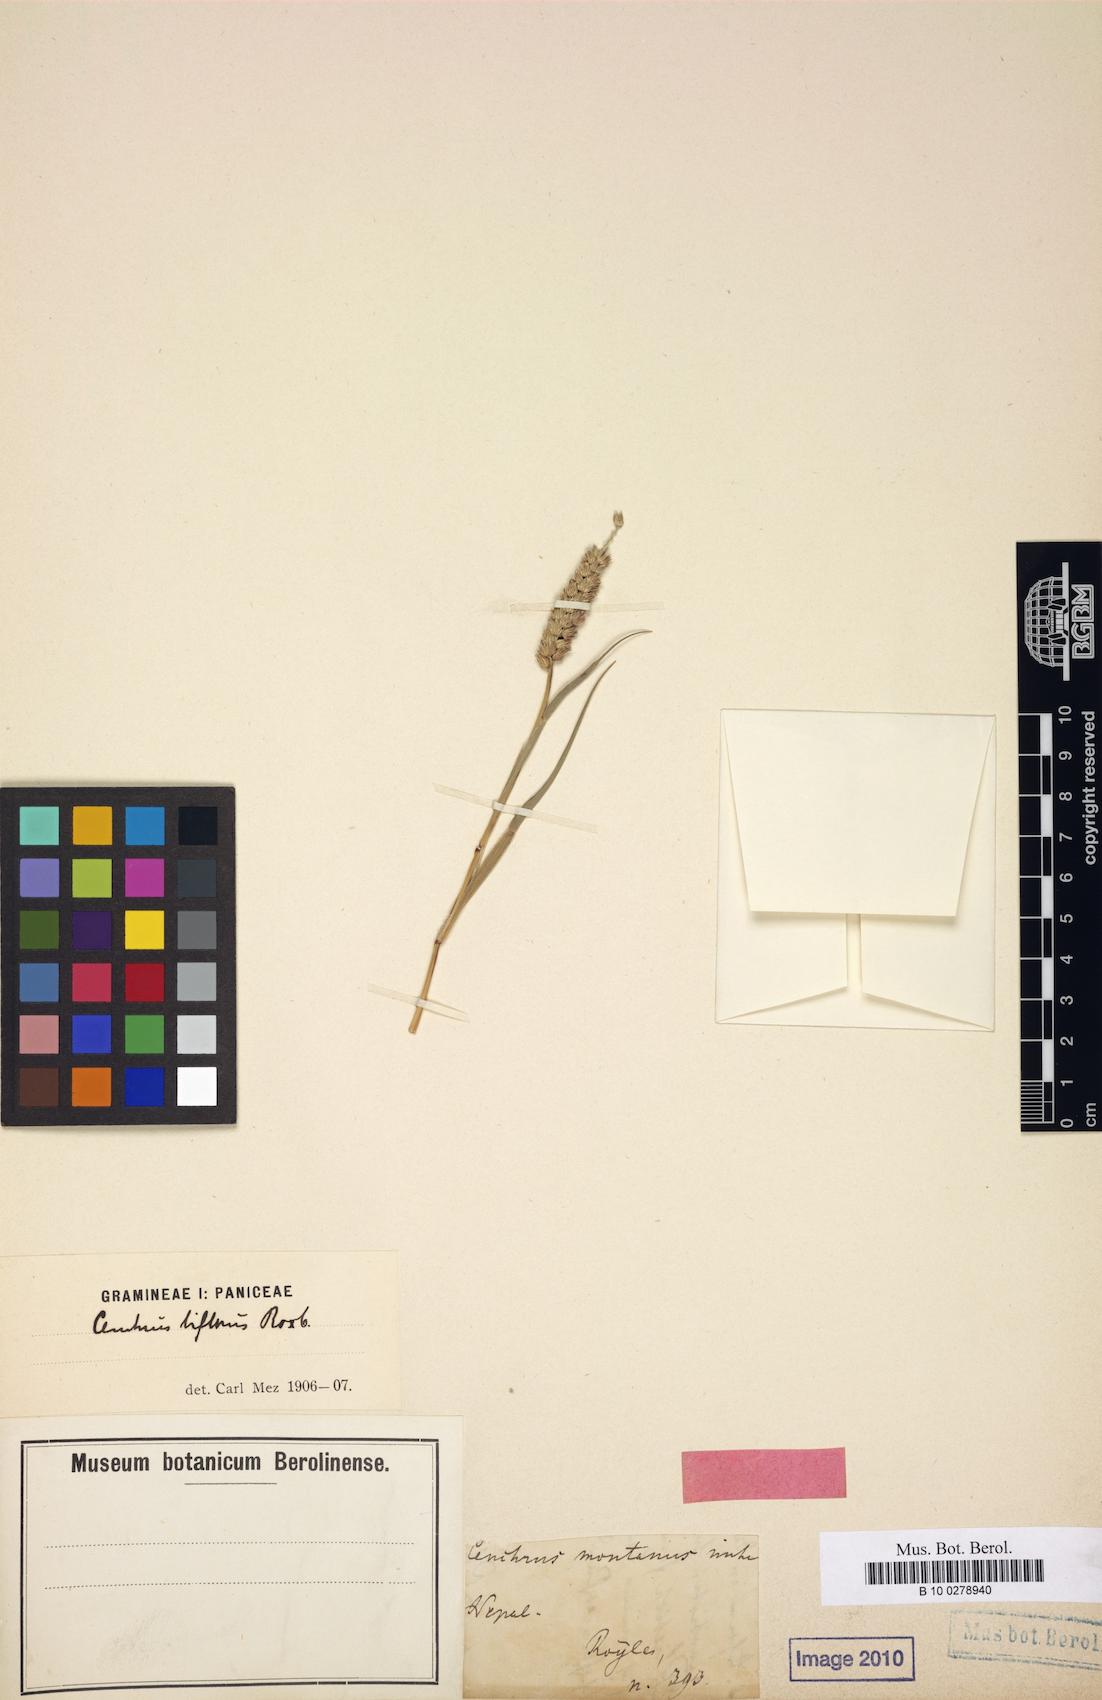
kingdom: Plantae
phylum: Tracheophyta
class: Liliopsida
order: Poales
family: Poaceae
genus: Cenchrus
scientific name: Cenchrus setigerus
